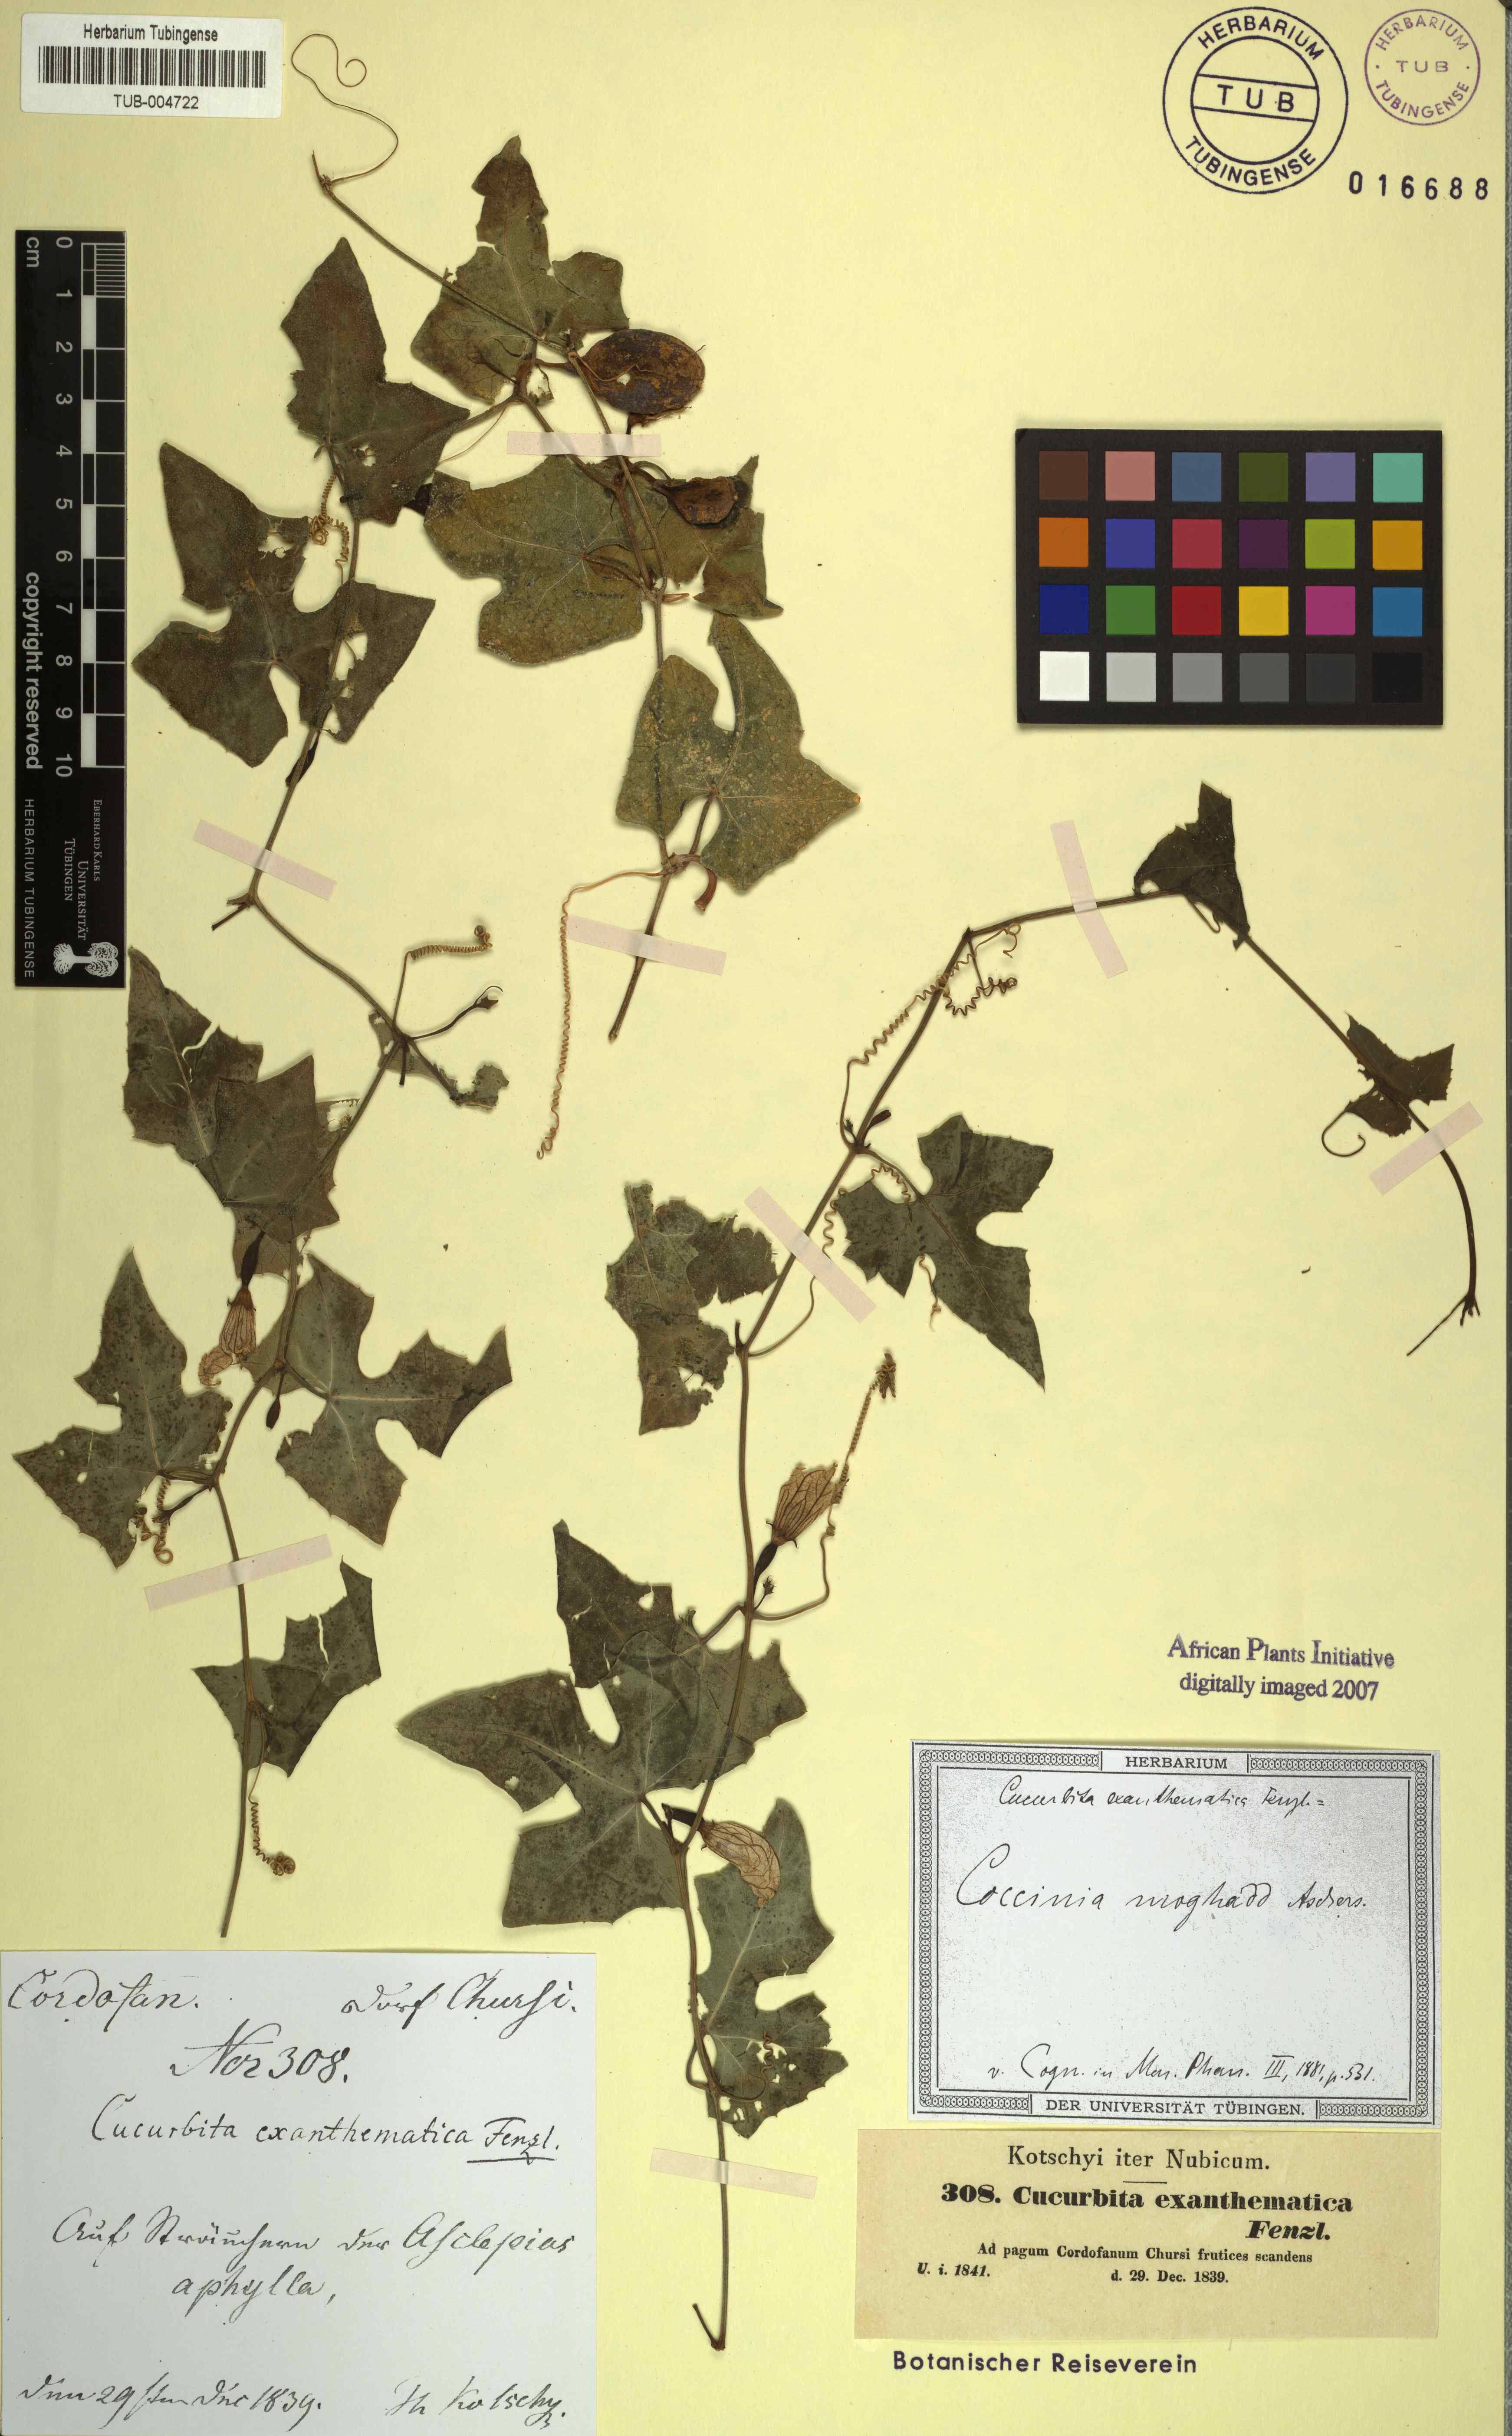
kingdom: Plantae
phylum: Tracheophyta
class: Magnoliopsida
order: Cucurbitales
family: Cucurbitaceae
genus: Coccinia
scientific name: Coccinia grandis
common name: Ivy gourd
